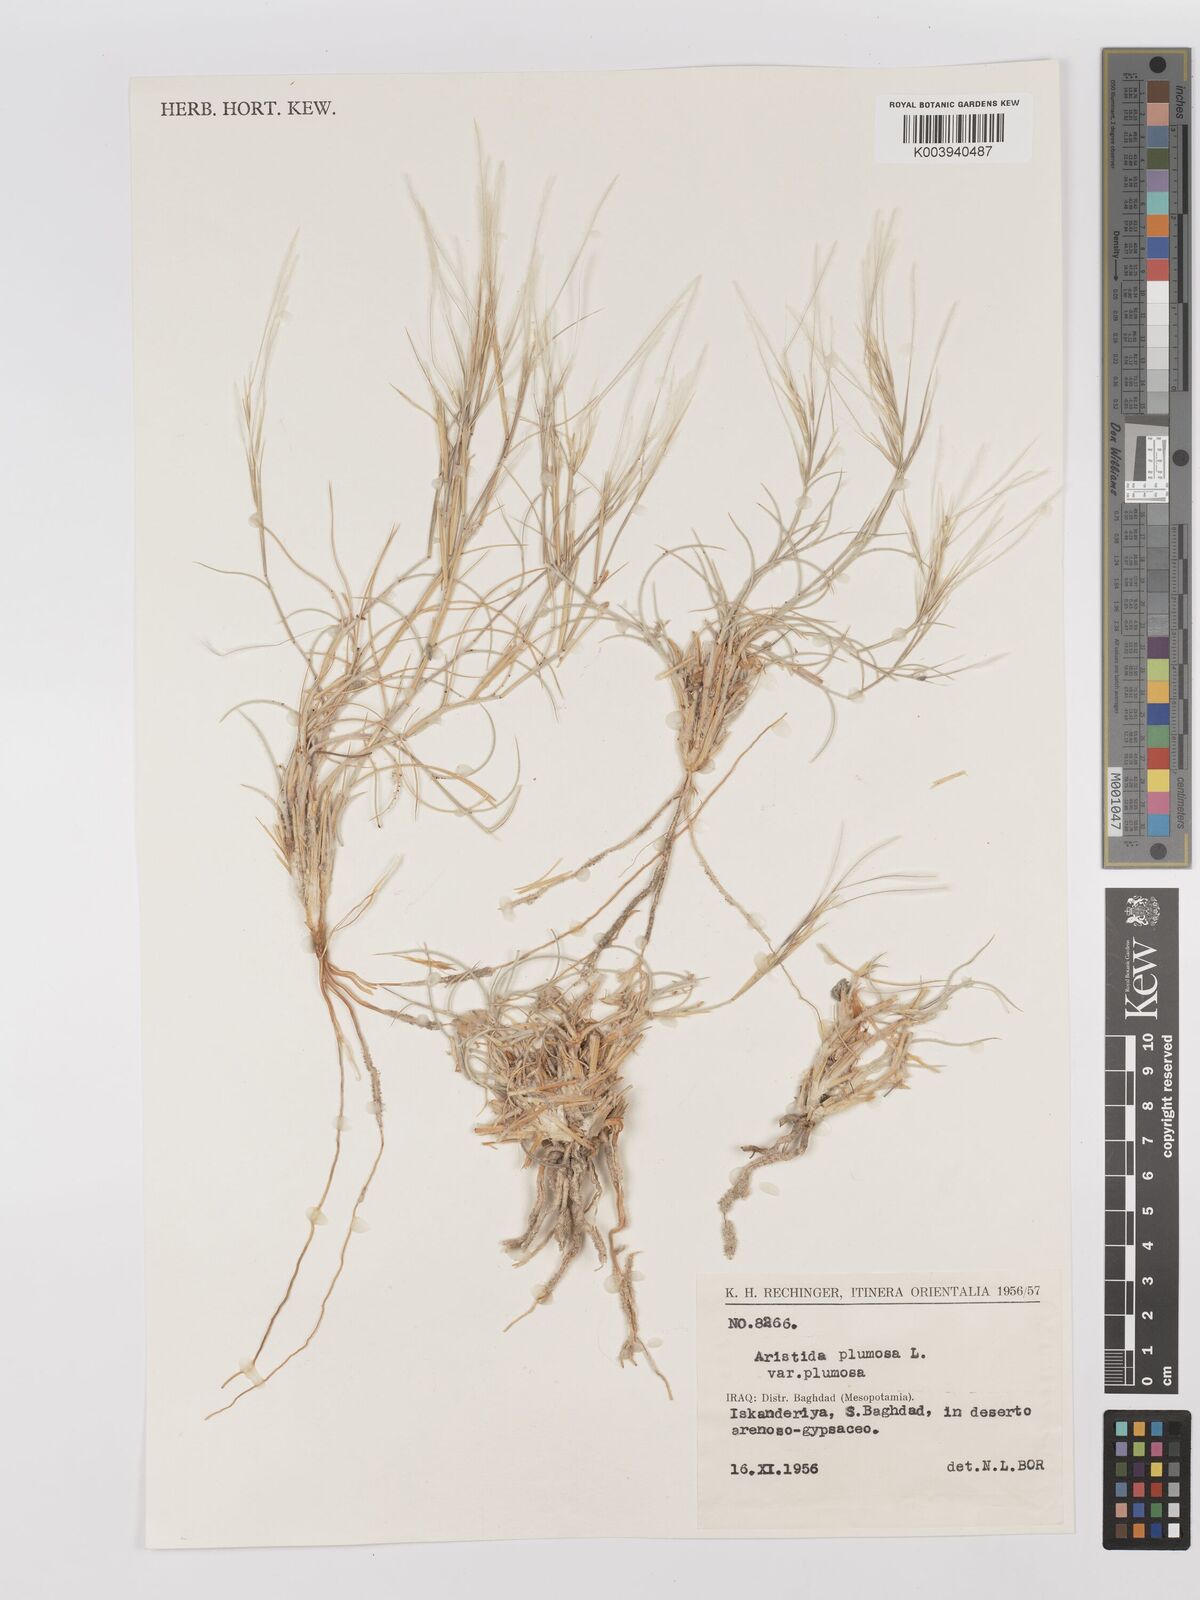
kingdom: Plantae
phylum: Tracheophyta
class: Liliopsida
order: Poales
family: Poaceae
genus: Stipagrostis
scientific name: Stipagrostis plumosa
